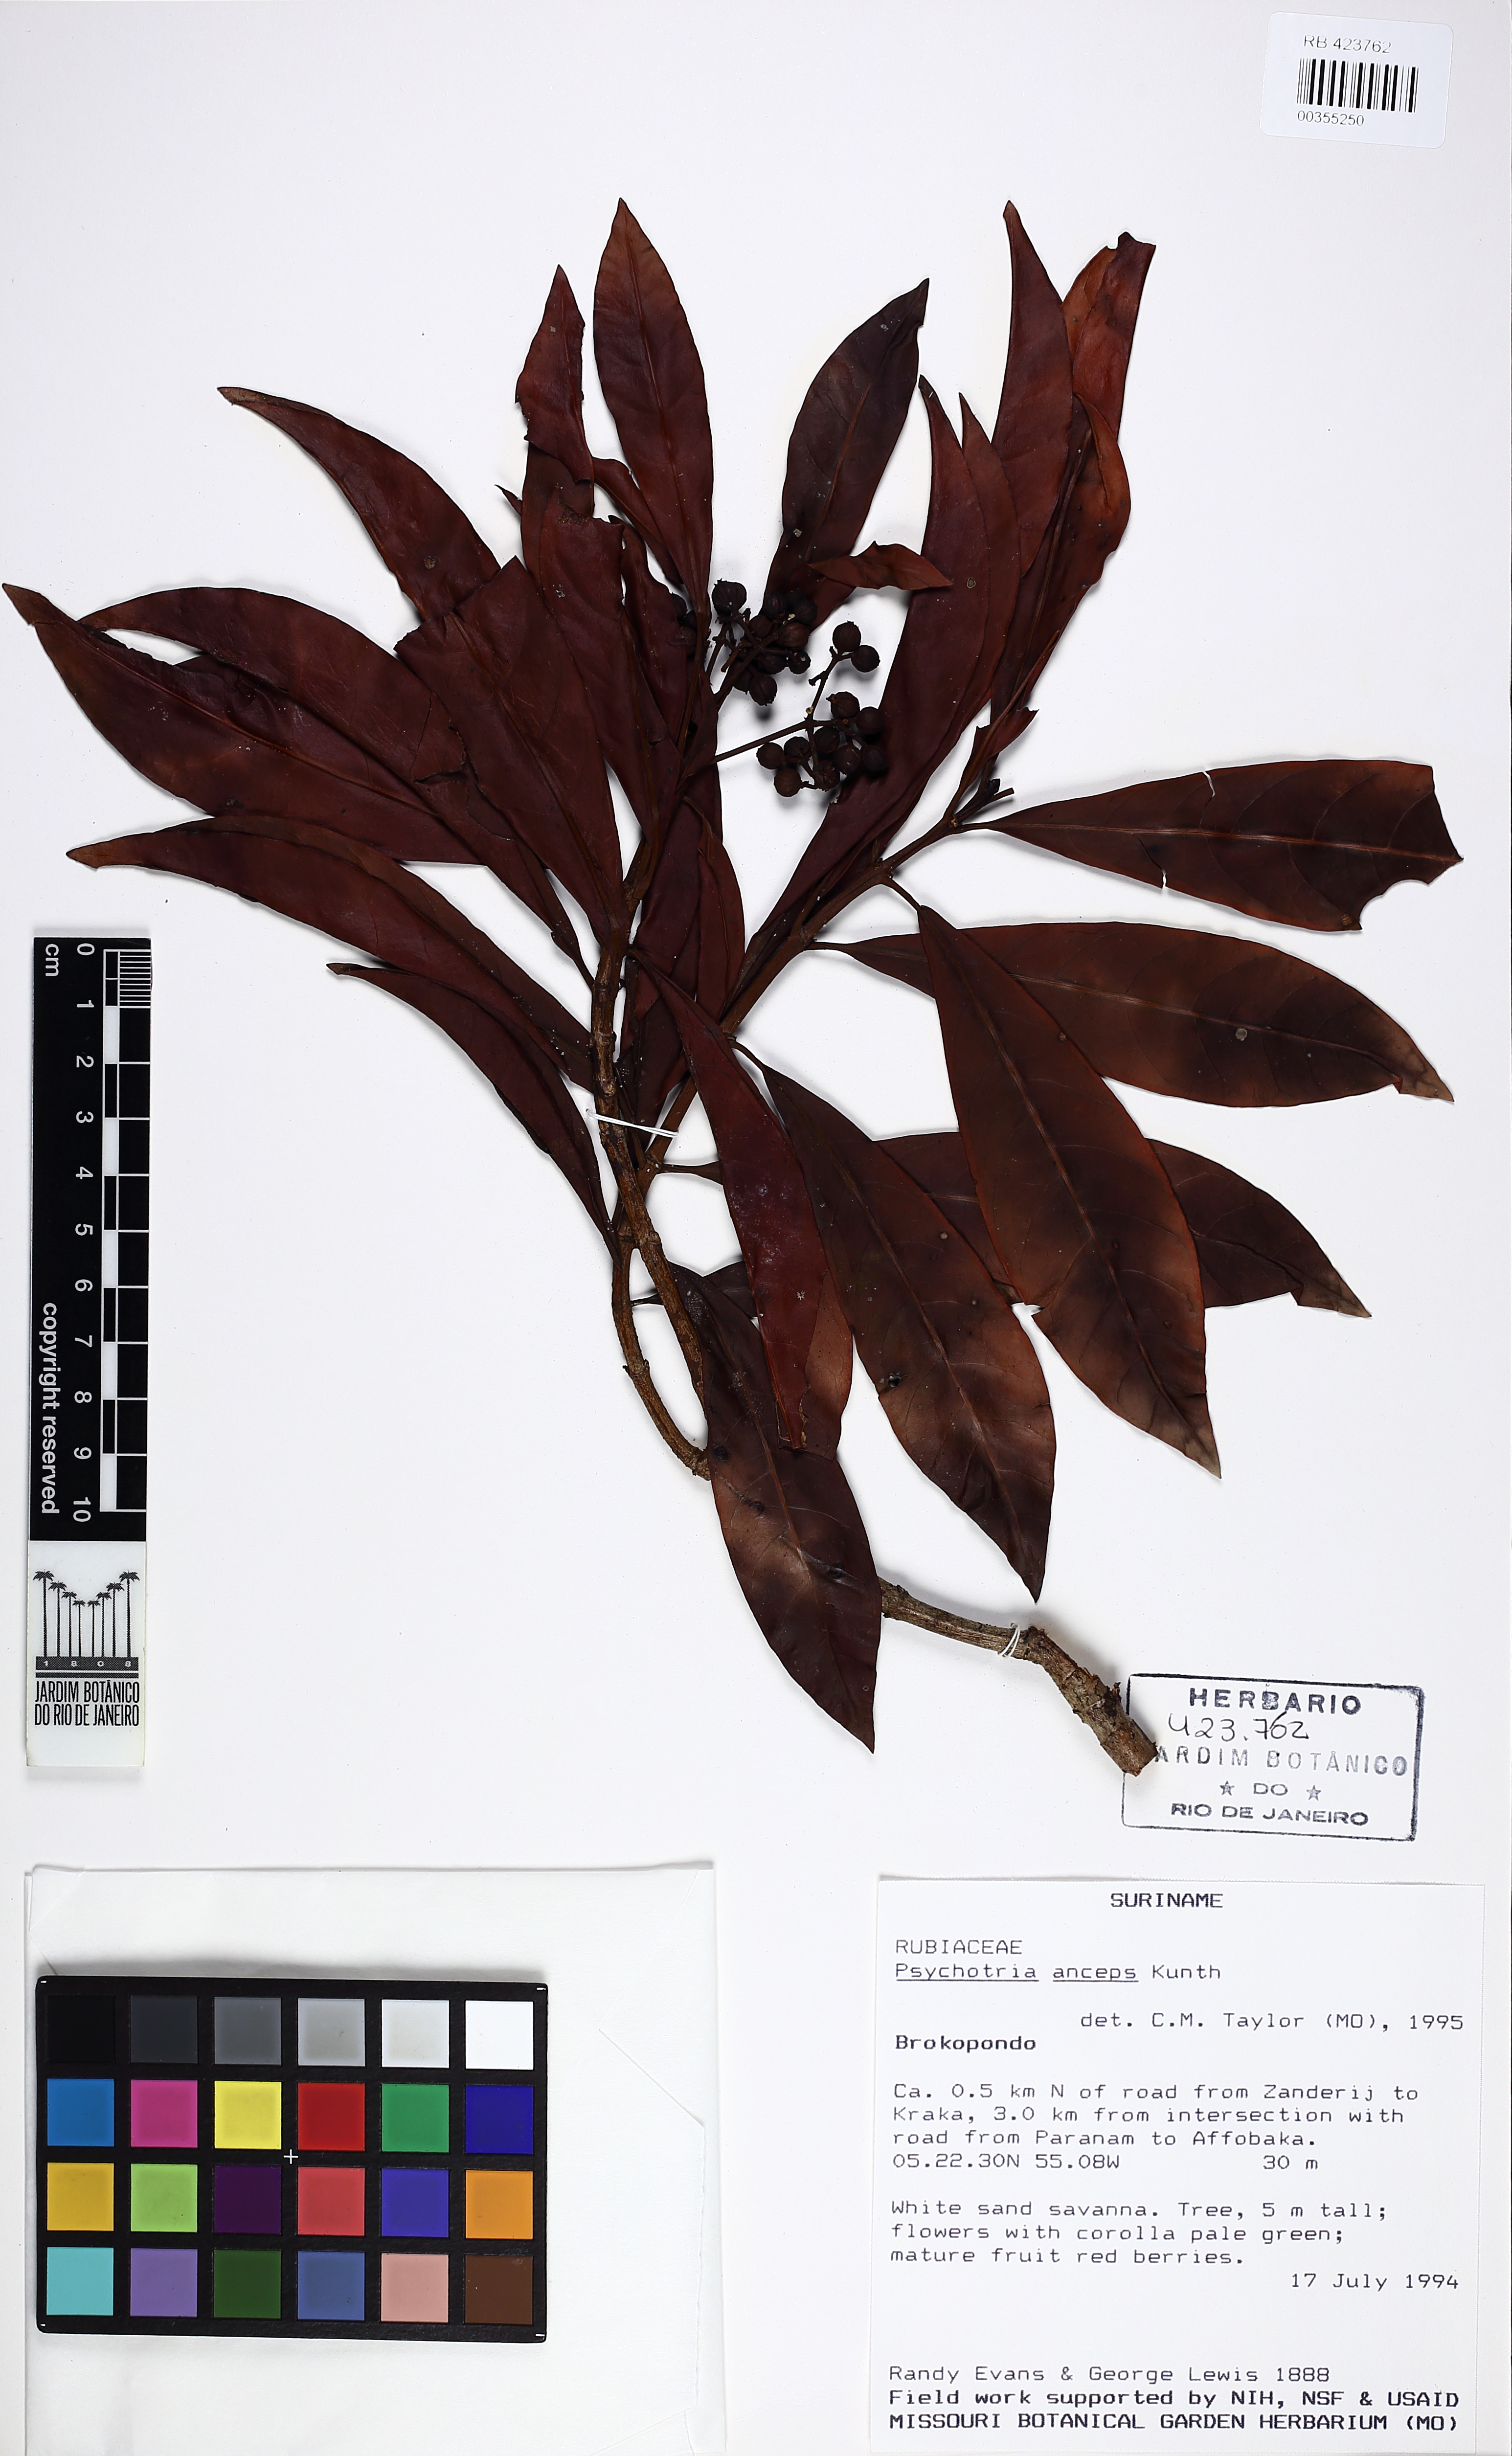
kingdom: Plantae
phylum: Tracheophyta
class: Magnoliopsida
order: Gentianales
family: Rubiaceae
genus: Psychotria
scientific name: Psychotria anceps
